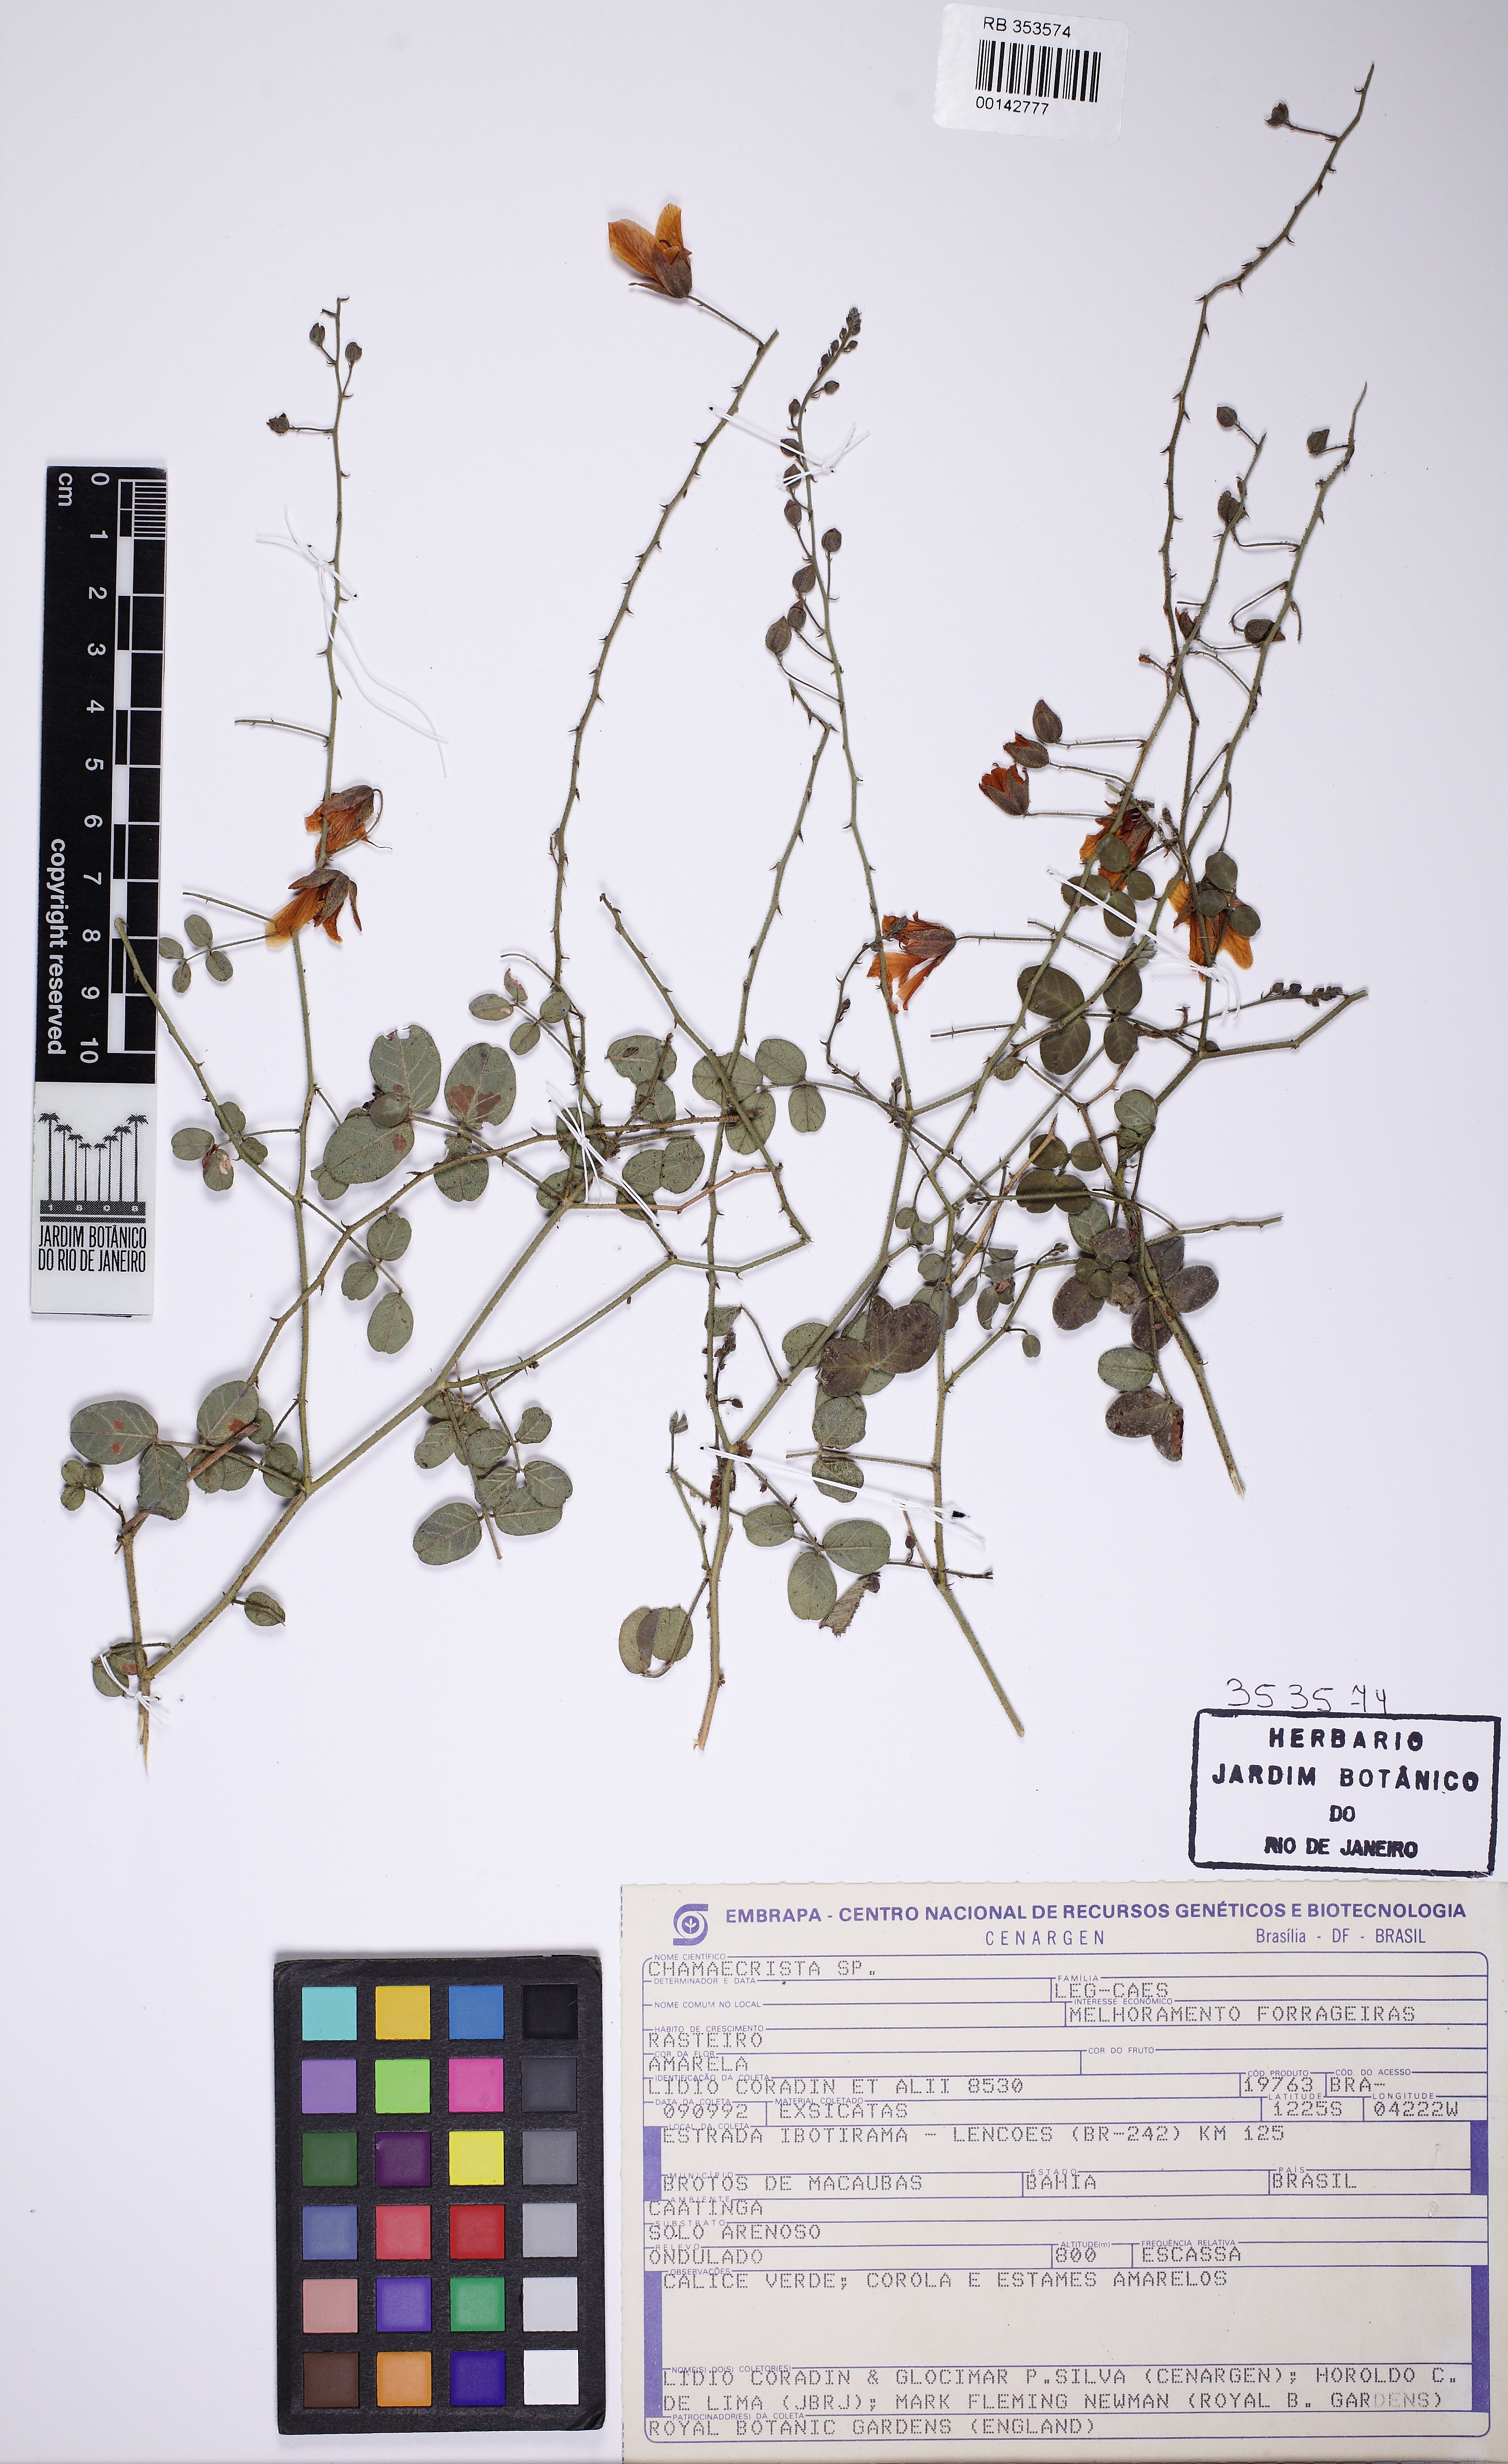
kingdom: Plantae
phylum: Tracheophyta
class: Magnoliopsida
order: Fabales
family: Fabaceae
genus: Chamaecrista
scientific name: Chamaecrista
